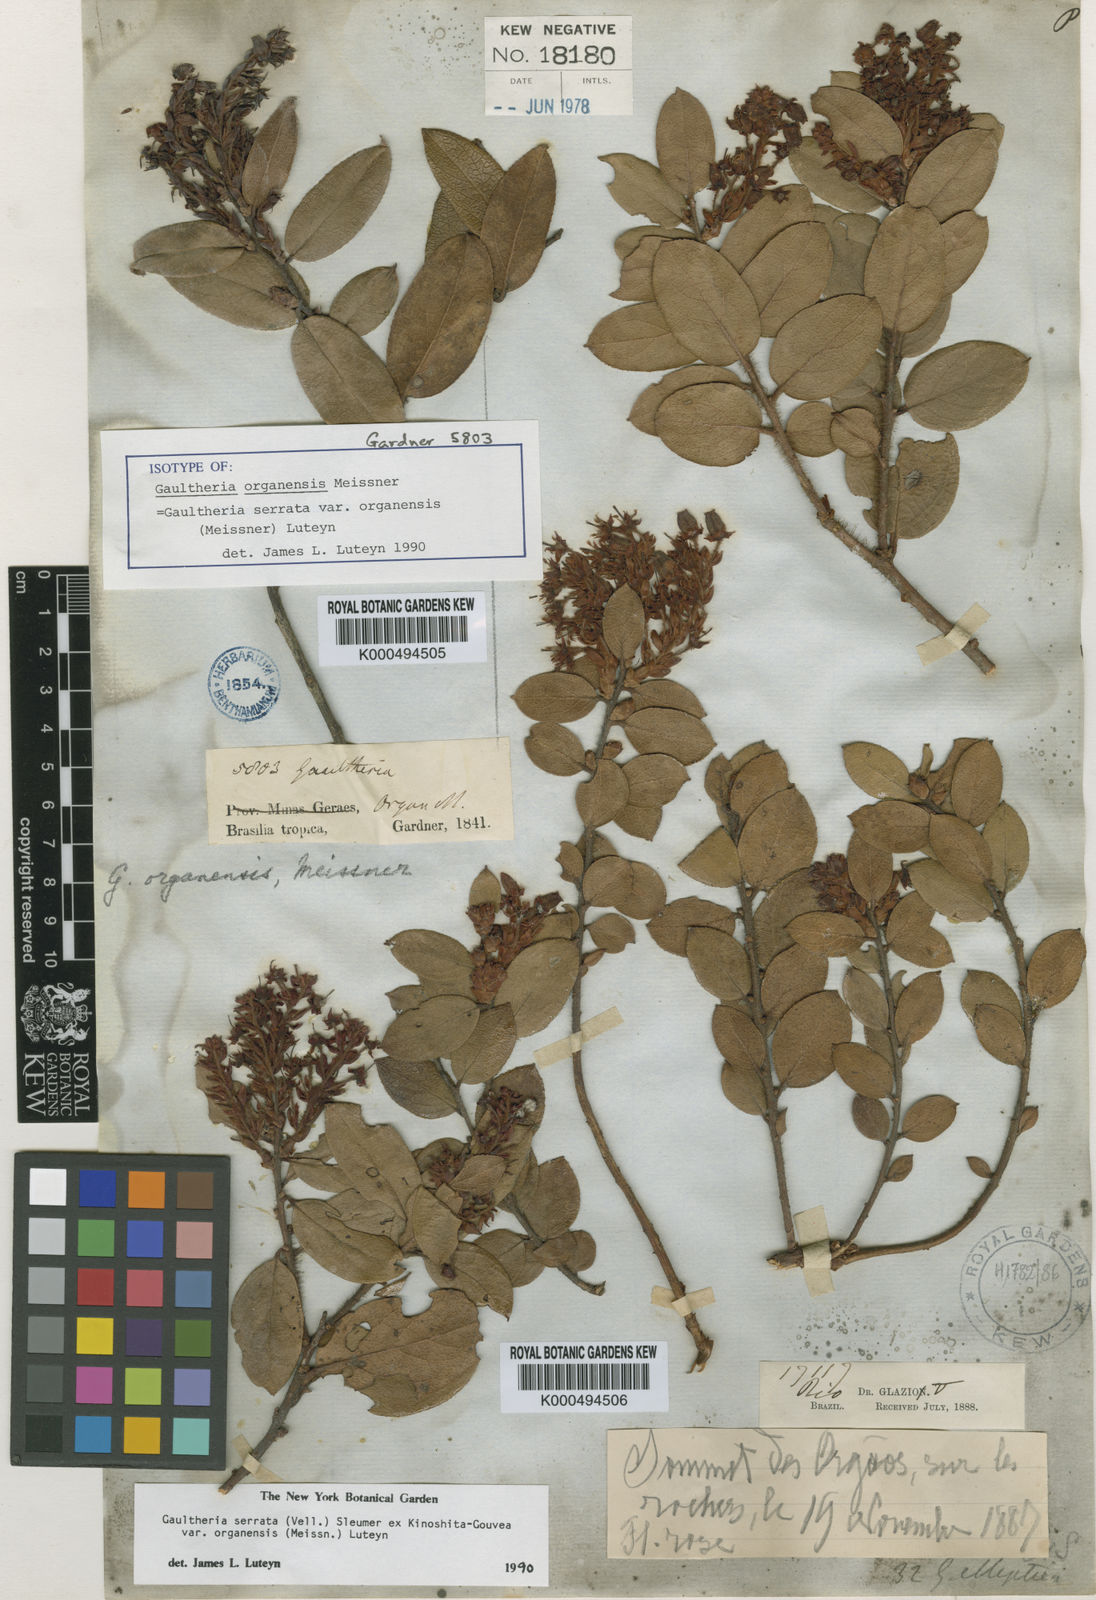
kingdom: Plantae
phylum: Tracheophyta
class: Magnoliopsida
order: Ericales
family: Ericaceae
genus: Gaultheria
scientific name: Gaultheria serrata
